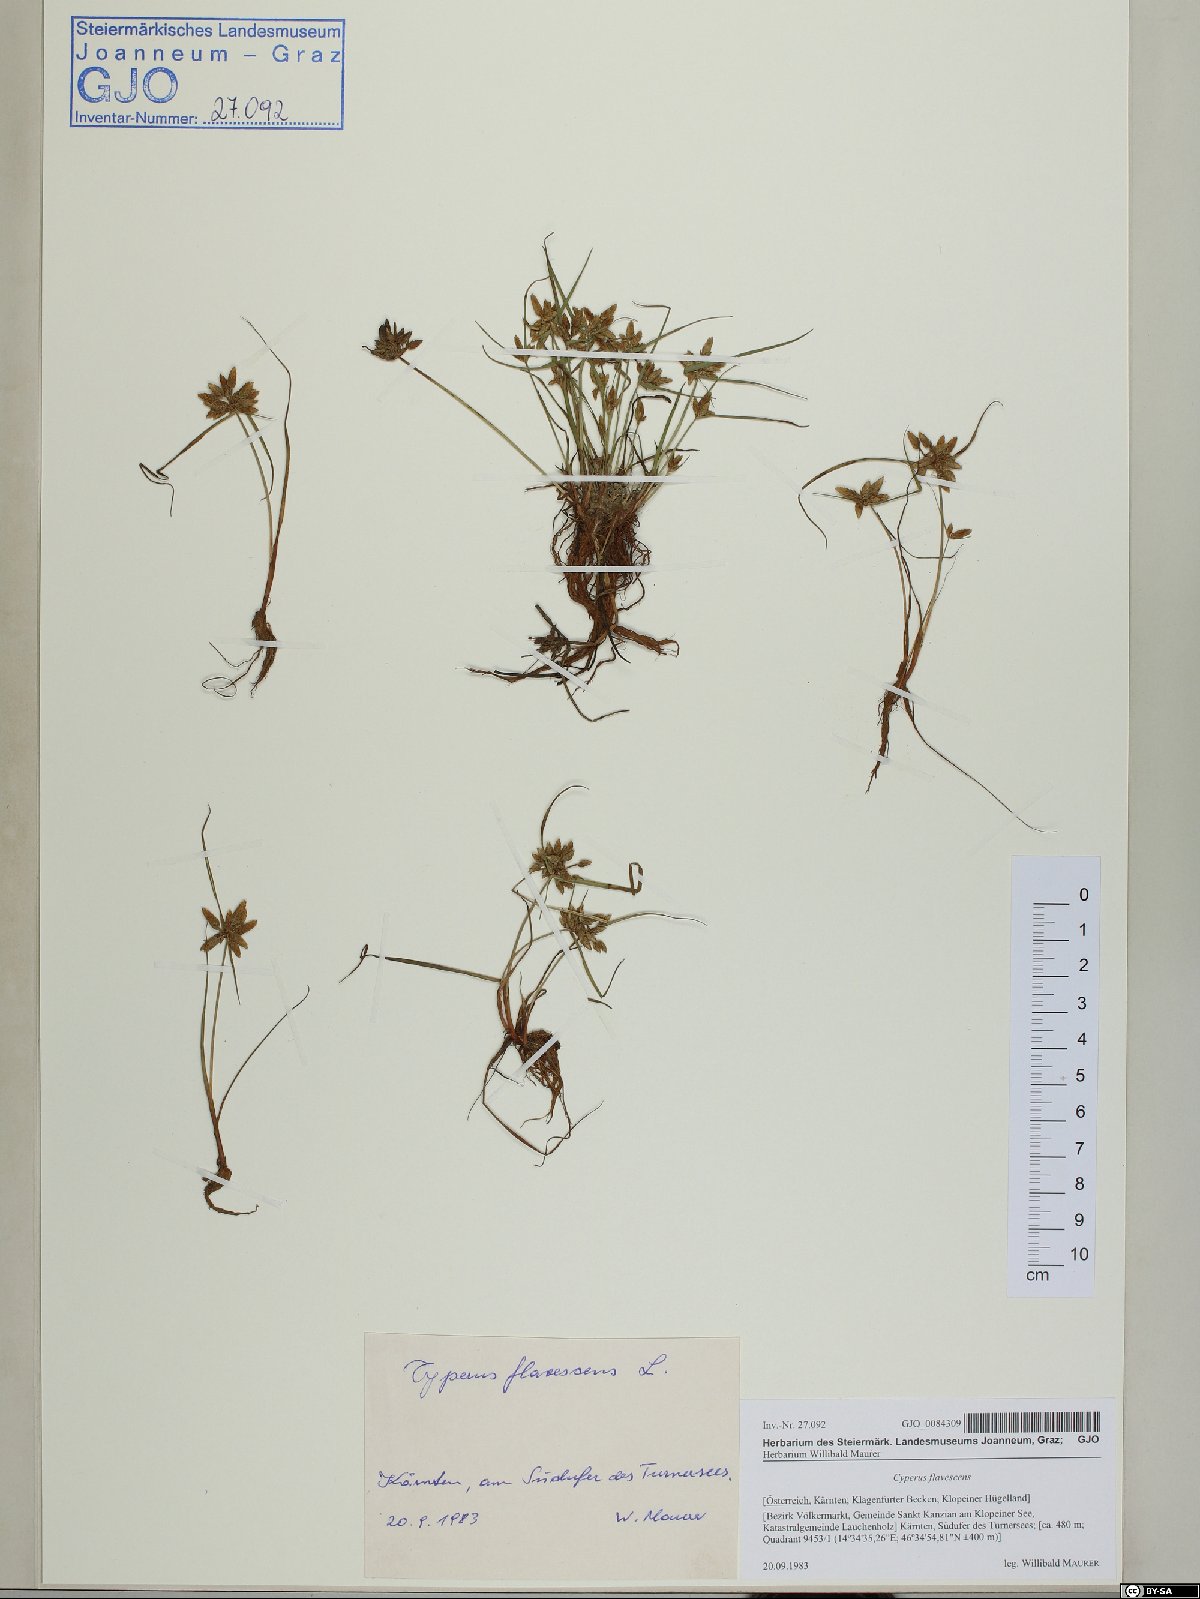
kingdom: Plantae
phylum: Tracheophyta
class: Liliopsida
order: Poales
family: Cyperaceae
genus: Cyperus
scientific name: Cyperus flavescens
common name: Yellow galingale
